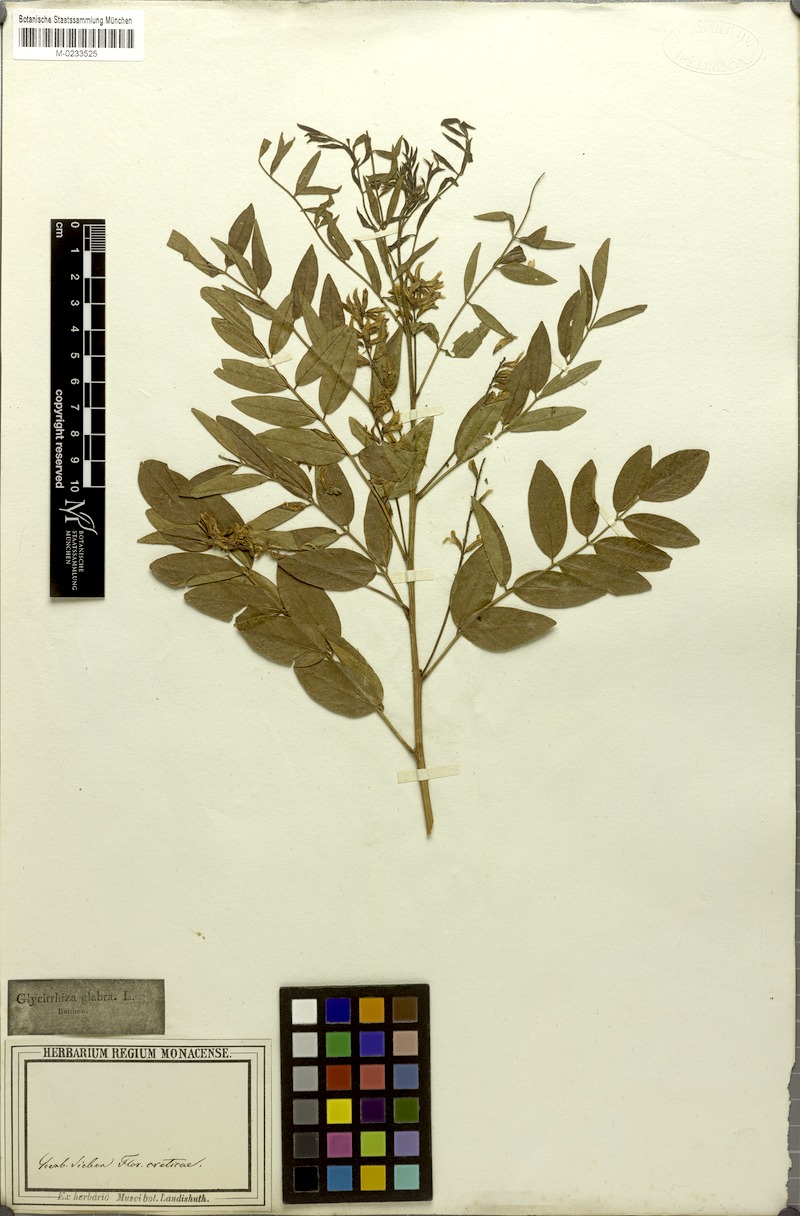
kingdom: Plantae
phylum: Tracheophyta
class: Magnoliopsida
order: Fabales
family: Fabaceae
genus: Glycyrrhiza
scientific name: Glycyrrhiza glabra
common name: Liquorice
